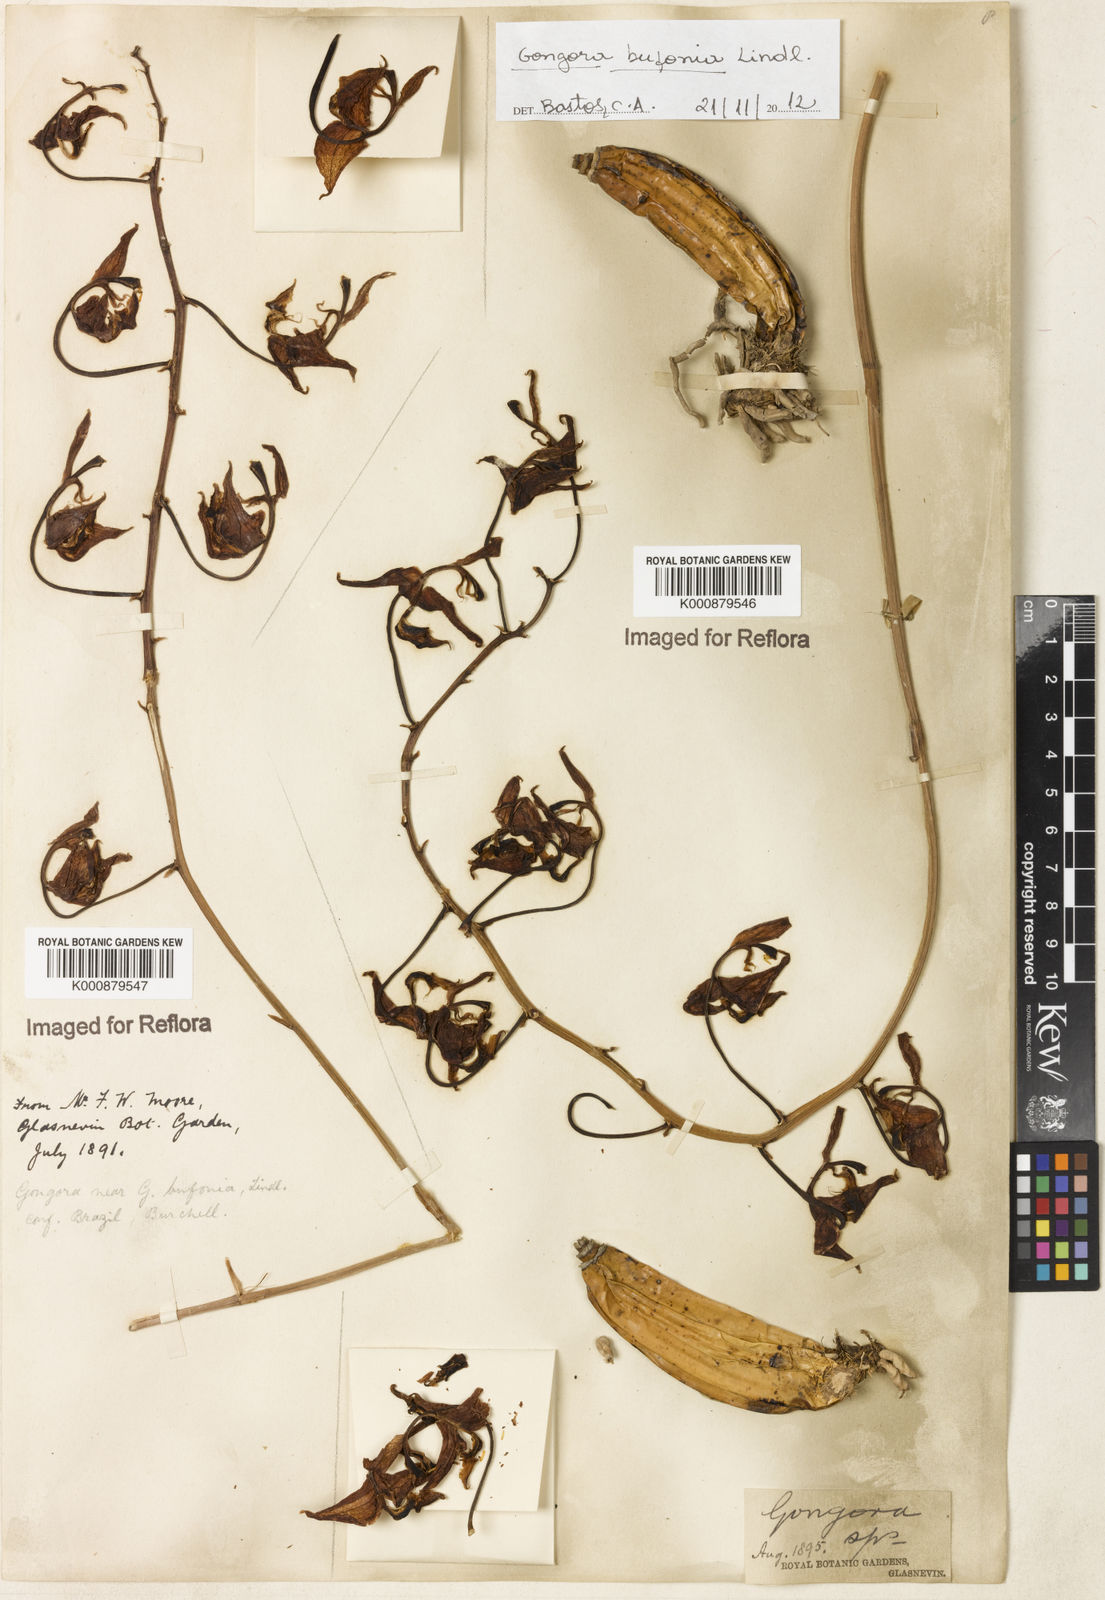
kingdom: Plantae
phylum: Tracheophyta
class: Liliopsida
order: Asparagales
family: Orchidaceae
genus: Gongora
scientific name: Gongora bufonia
